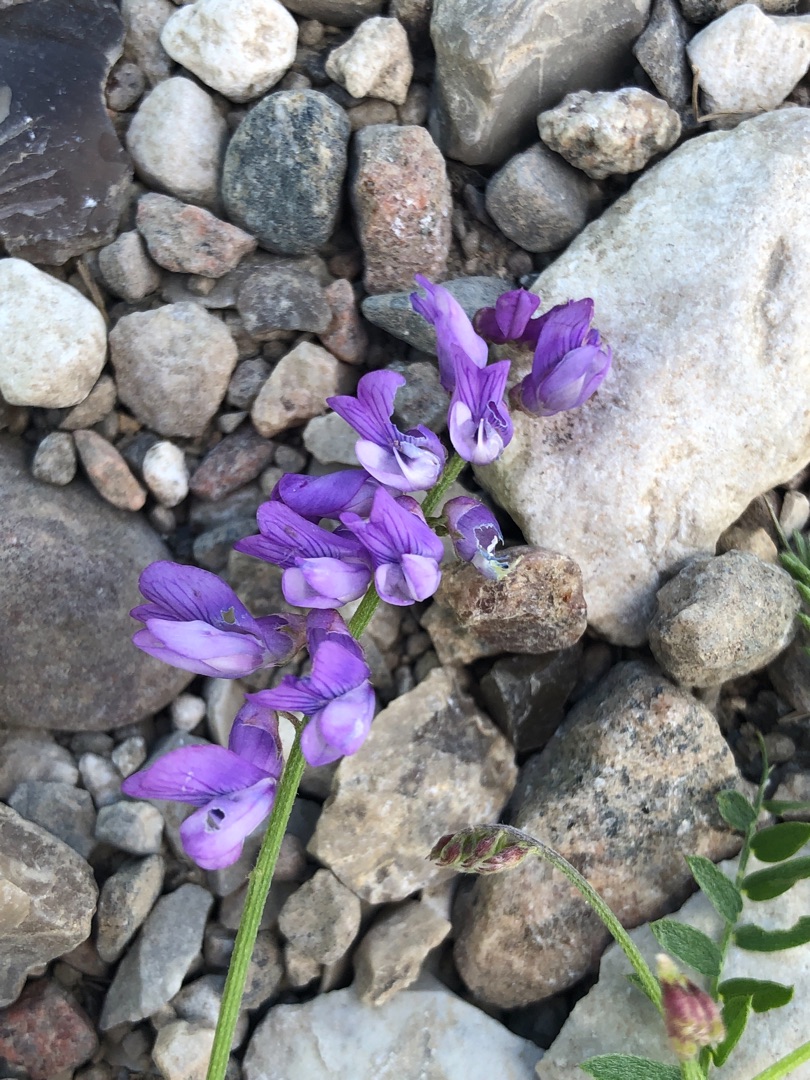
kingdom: Plantae
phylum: Tracheophyta
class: Magnoliopsida
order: Fabales
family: Fabaceae
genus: Vicia
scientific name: Vicia cracca
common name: Muse-vikke
